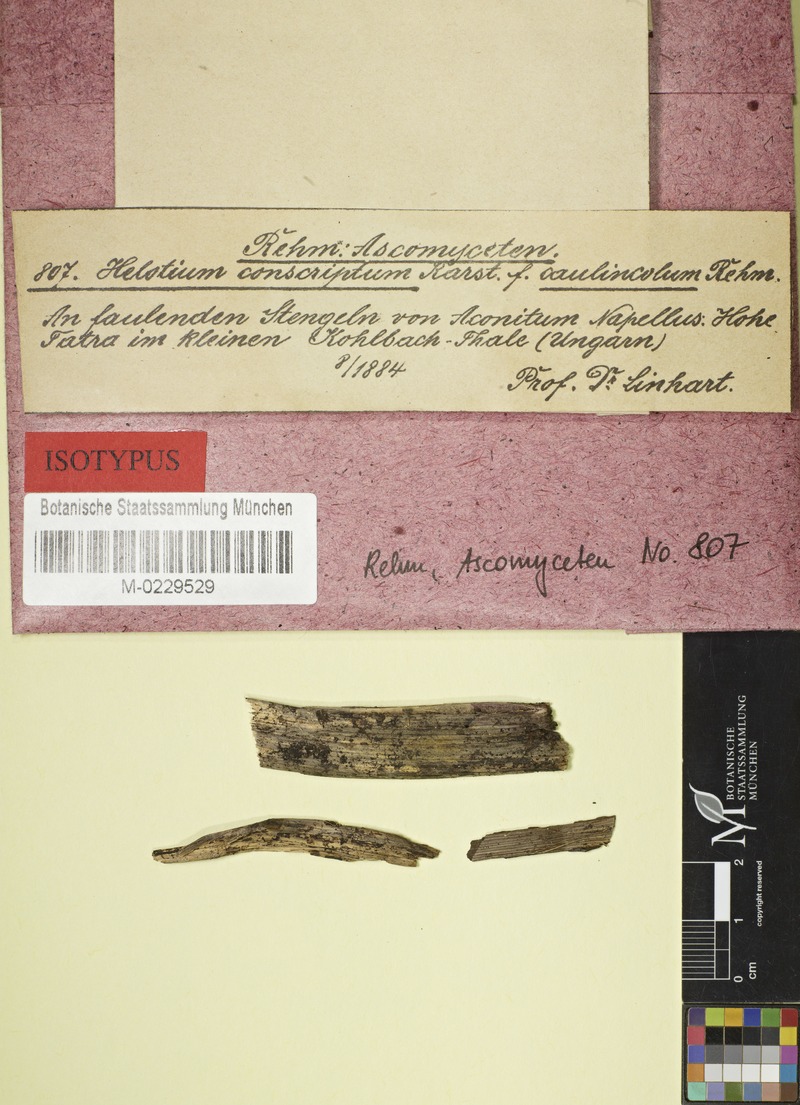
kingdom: Fungi
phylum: Ascomycota
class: Leotiomycetes
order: Helotiales
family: Helotiaceae
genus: Hymenoscyphus
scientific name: Hymenoscyphus calyculus
